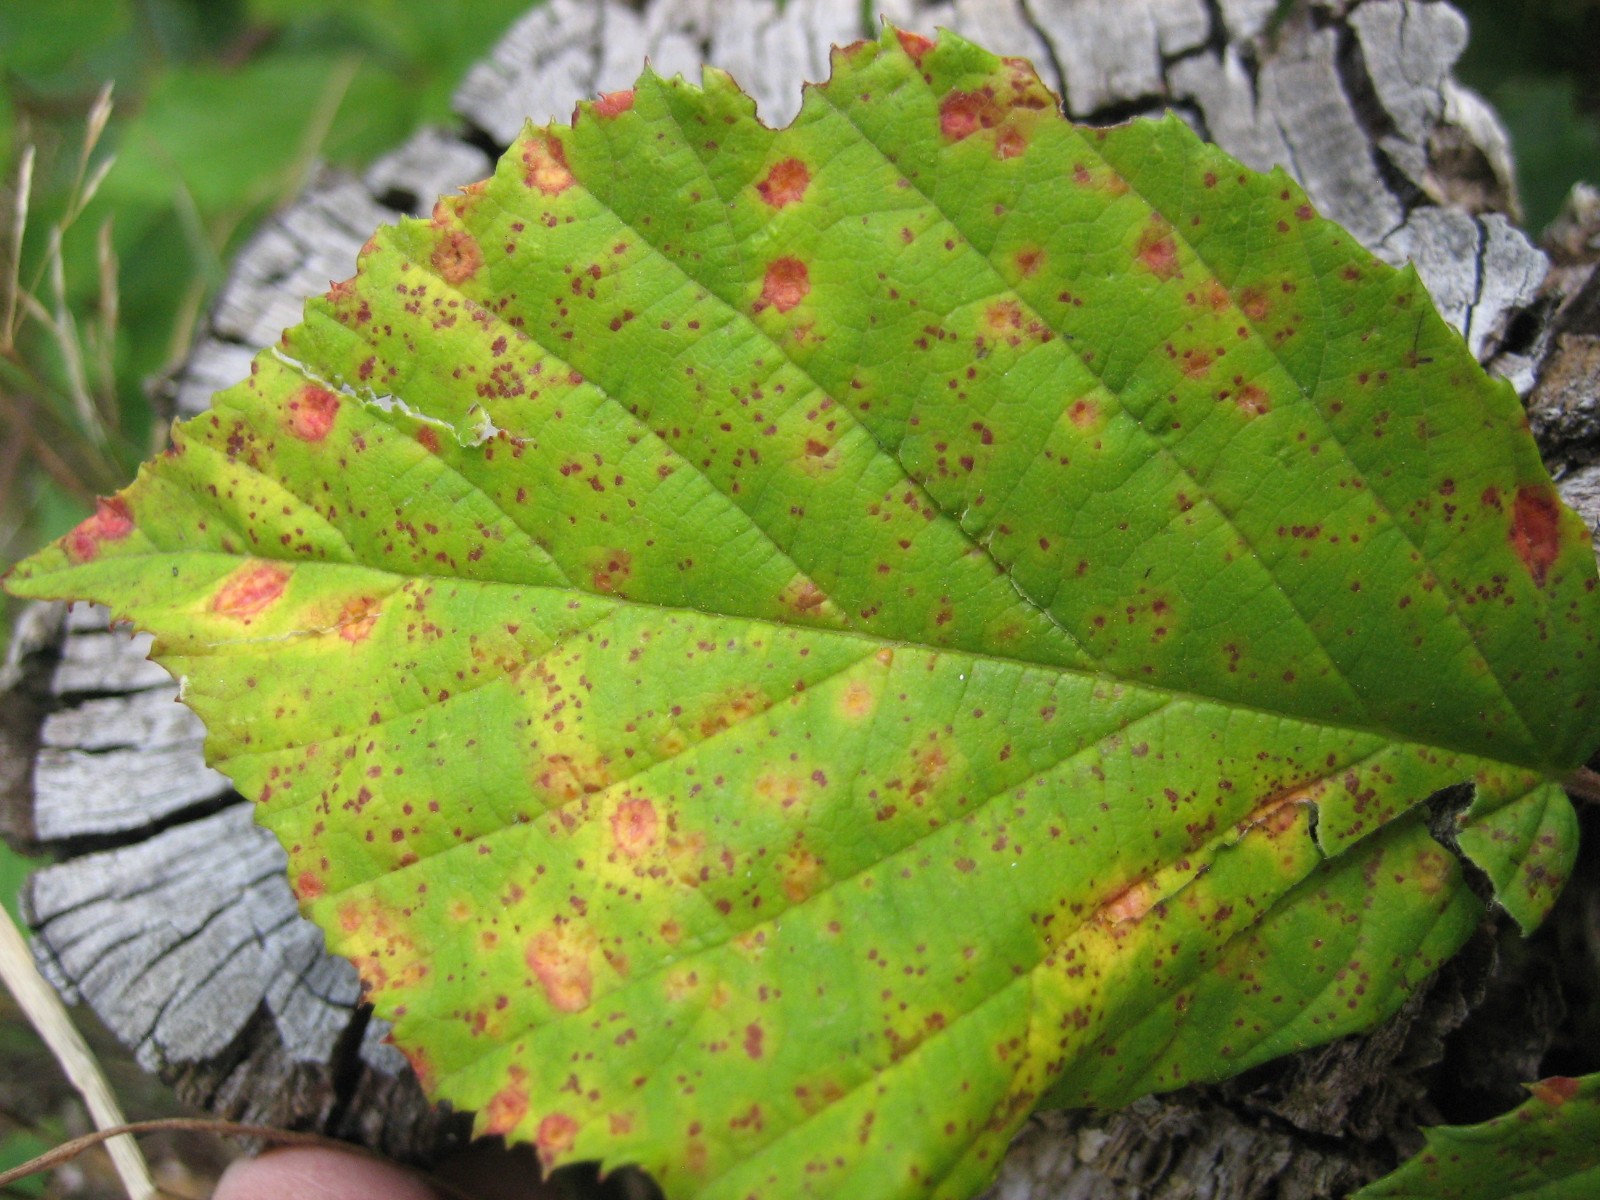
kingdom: Fungi
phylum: Basidiomycota
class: Pucciniomycetes
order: Pucciniales
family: Phragmidiaceae
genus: Phragmidium
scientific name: Phragmidium
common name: flercellerust
